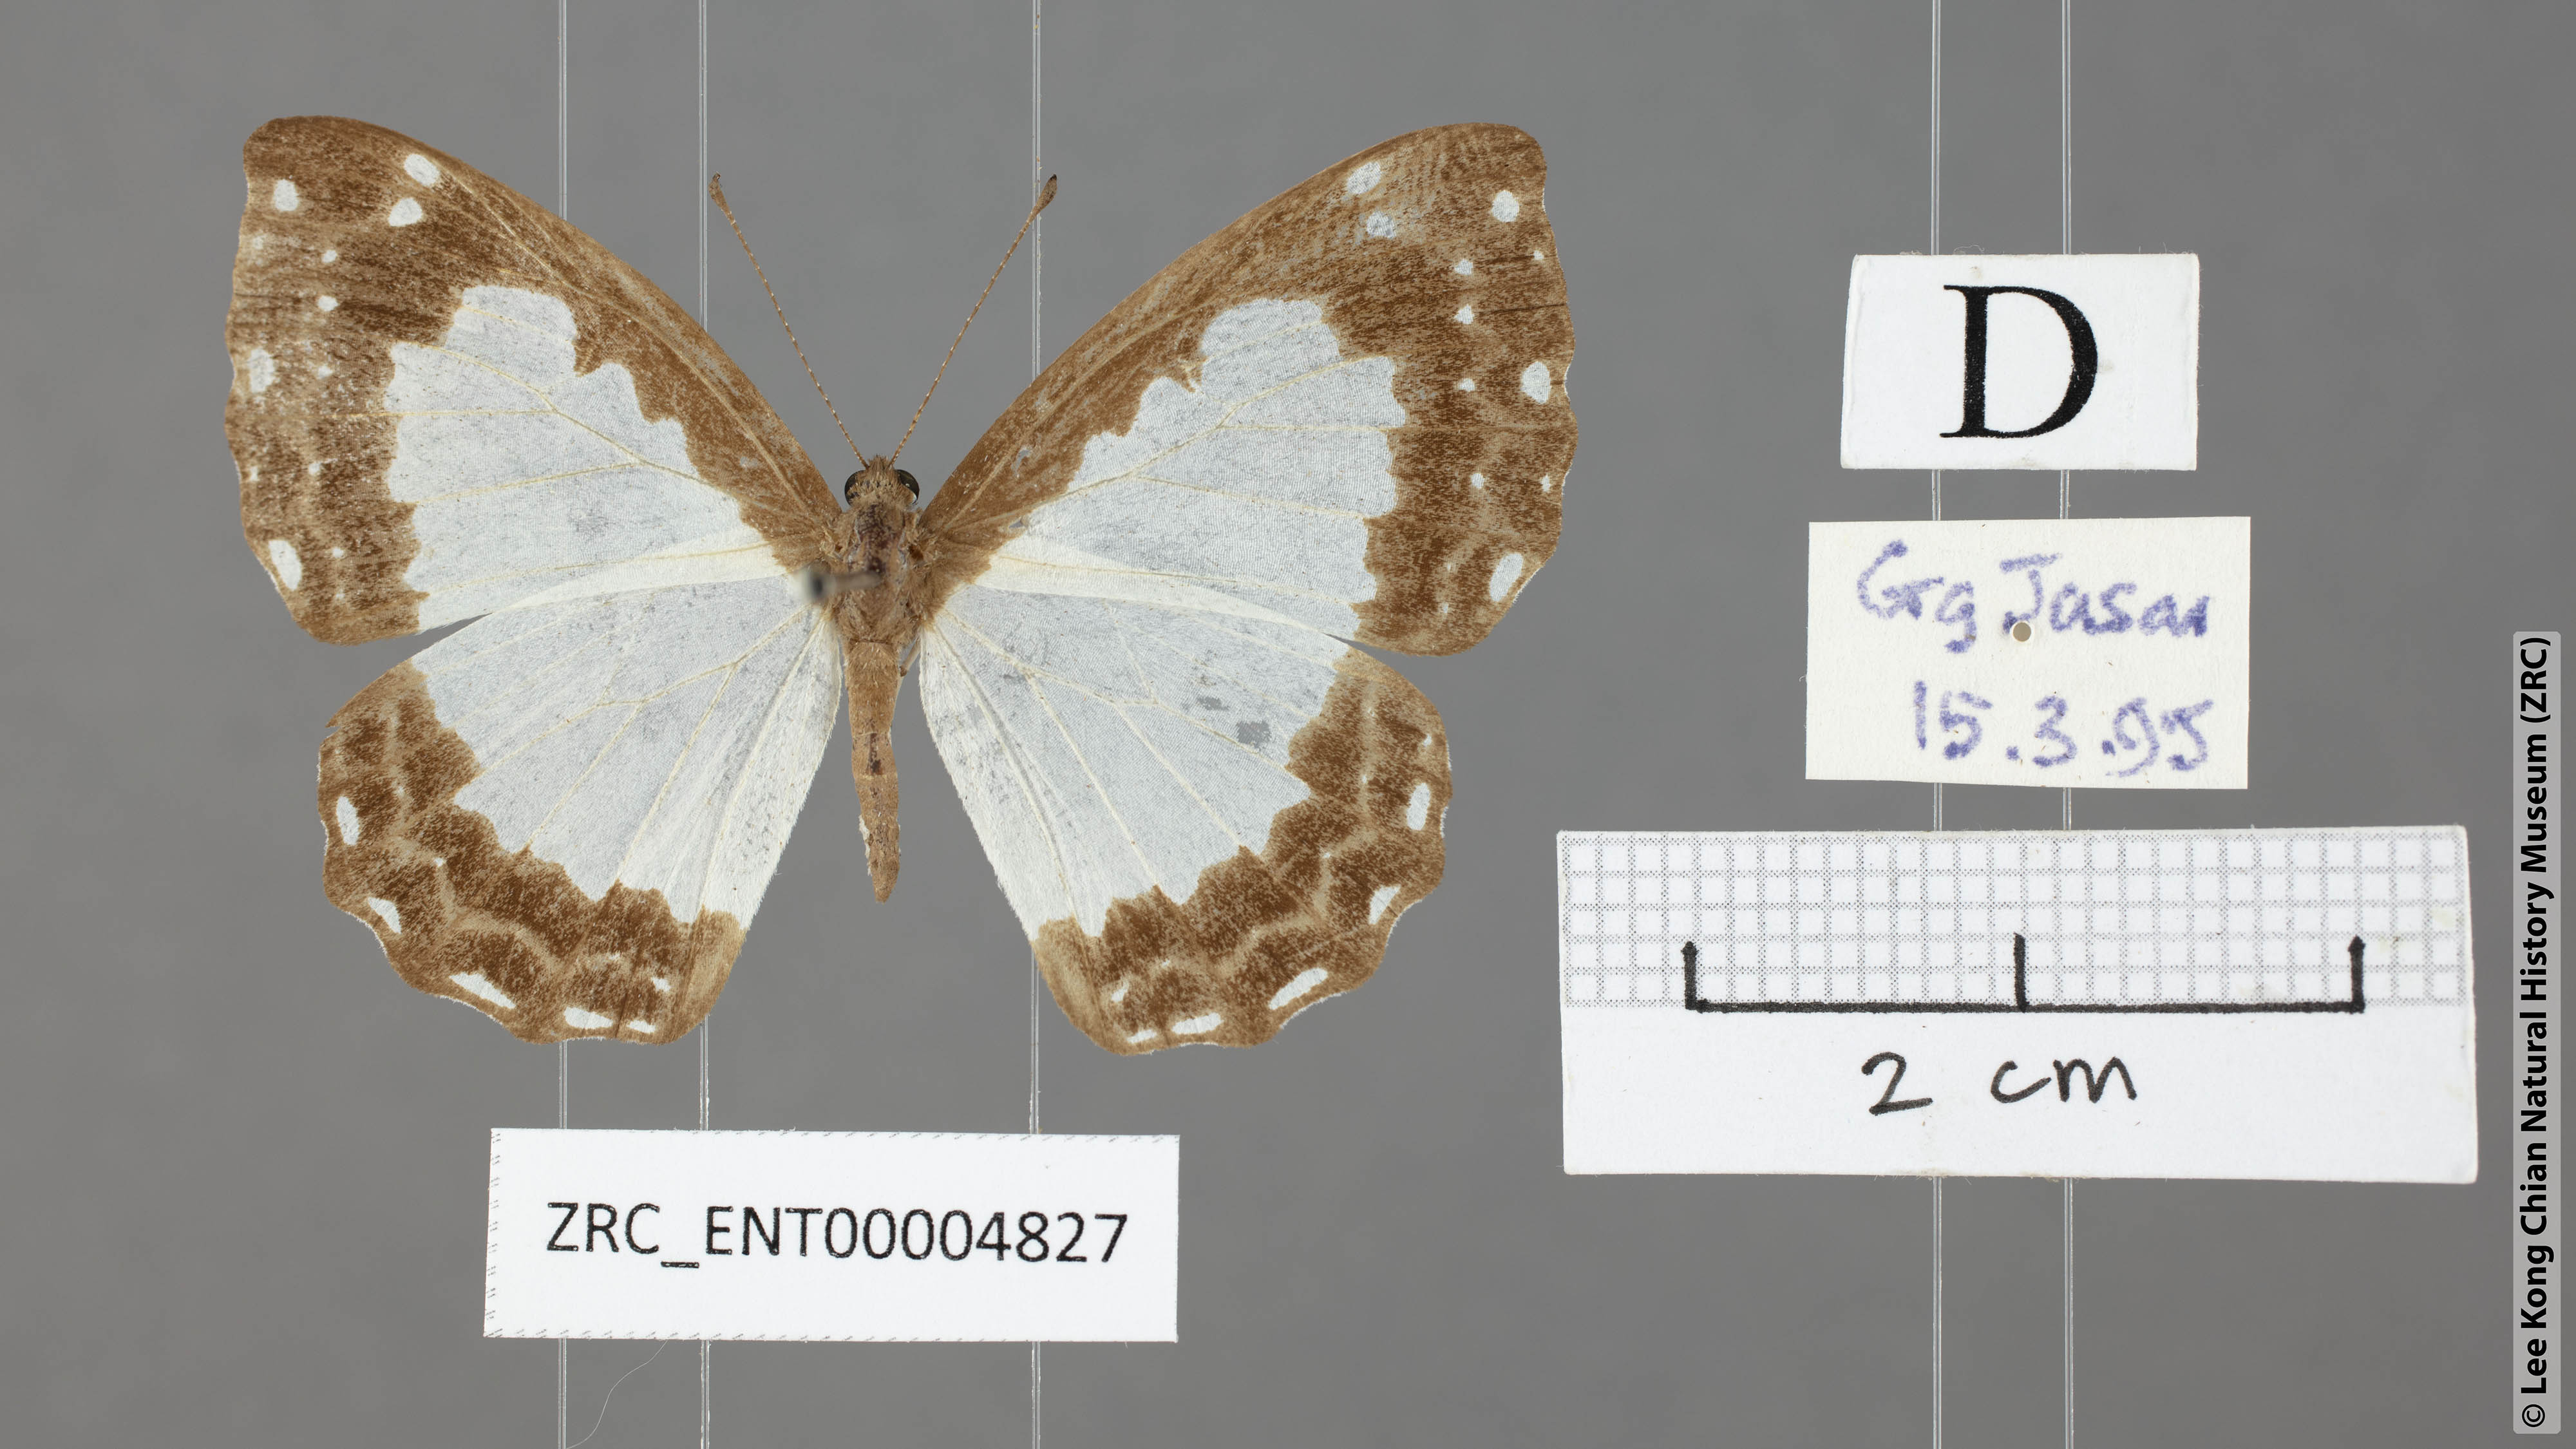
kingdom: Animalia
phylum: Arthropoda
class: Insecta
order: Lepidoptera
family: Riodinidae
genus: Stiboges
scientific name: Stiboges nymphidia
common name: Columbine
